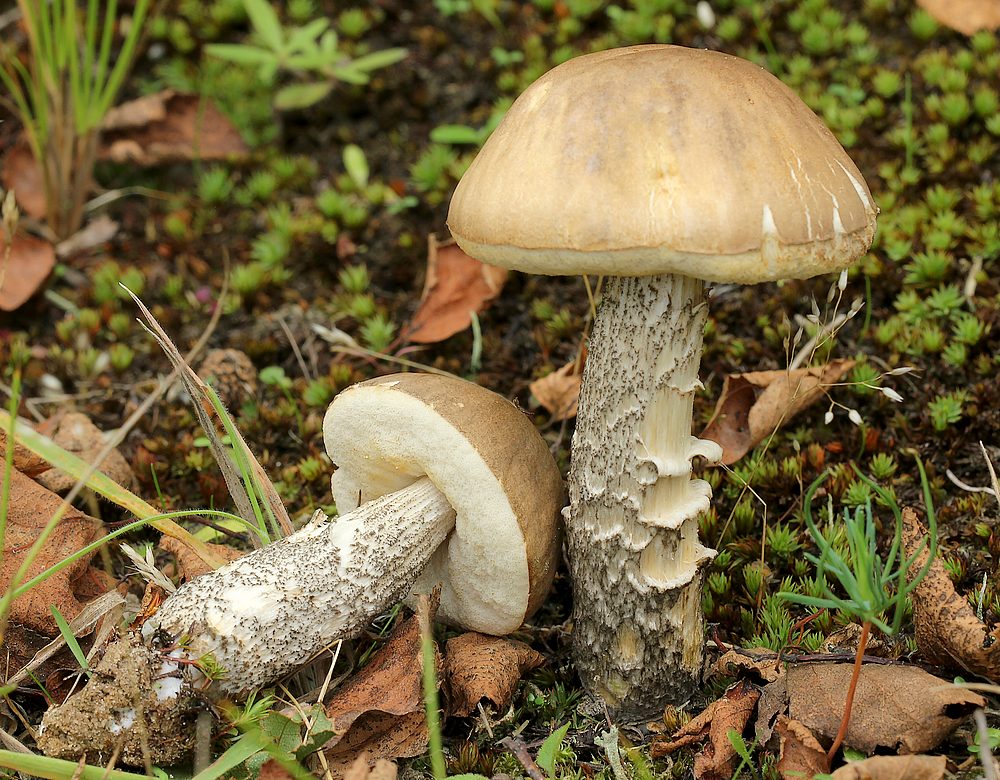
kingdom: Fungi
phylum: Basidiomycota
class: Agaricomycetes
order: Boletales
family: Boletaceae
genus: Leccinum
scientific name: Leccinum scabrum
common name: brun skælrørhat
